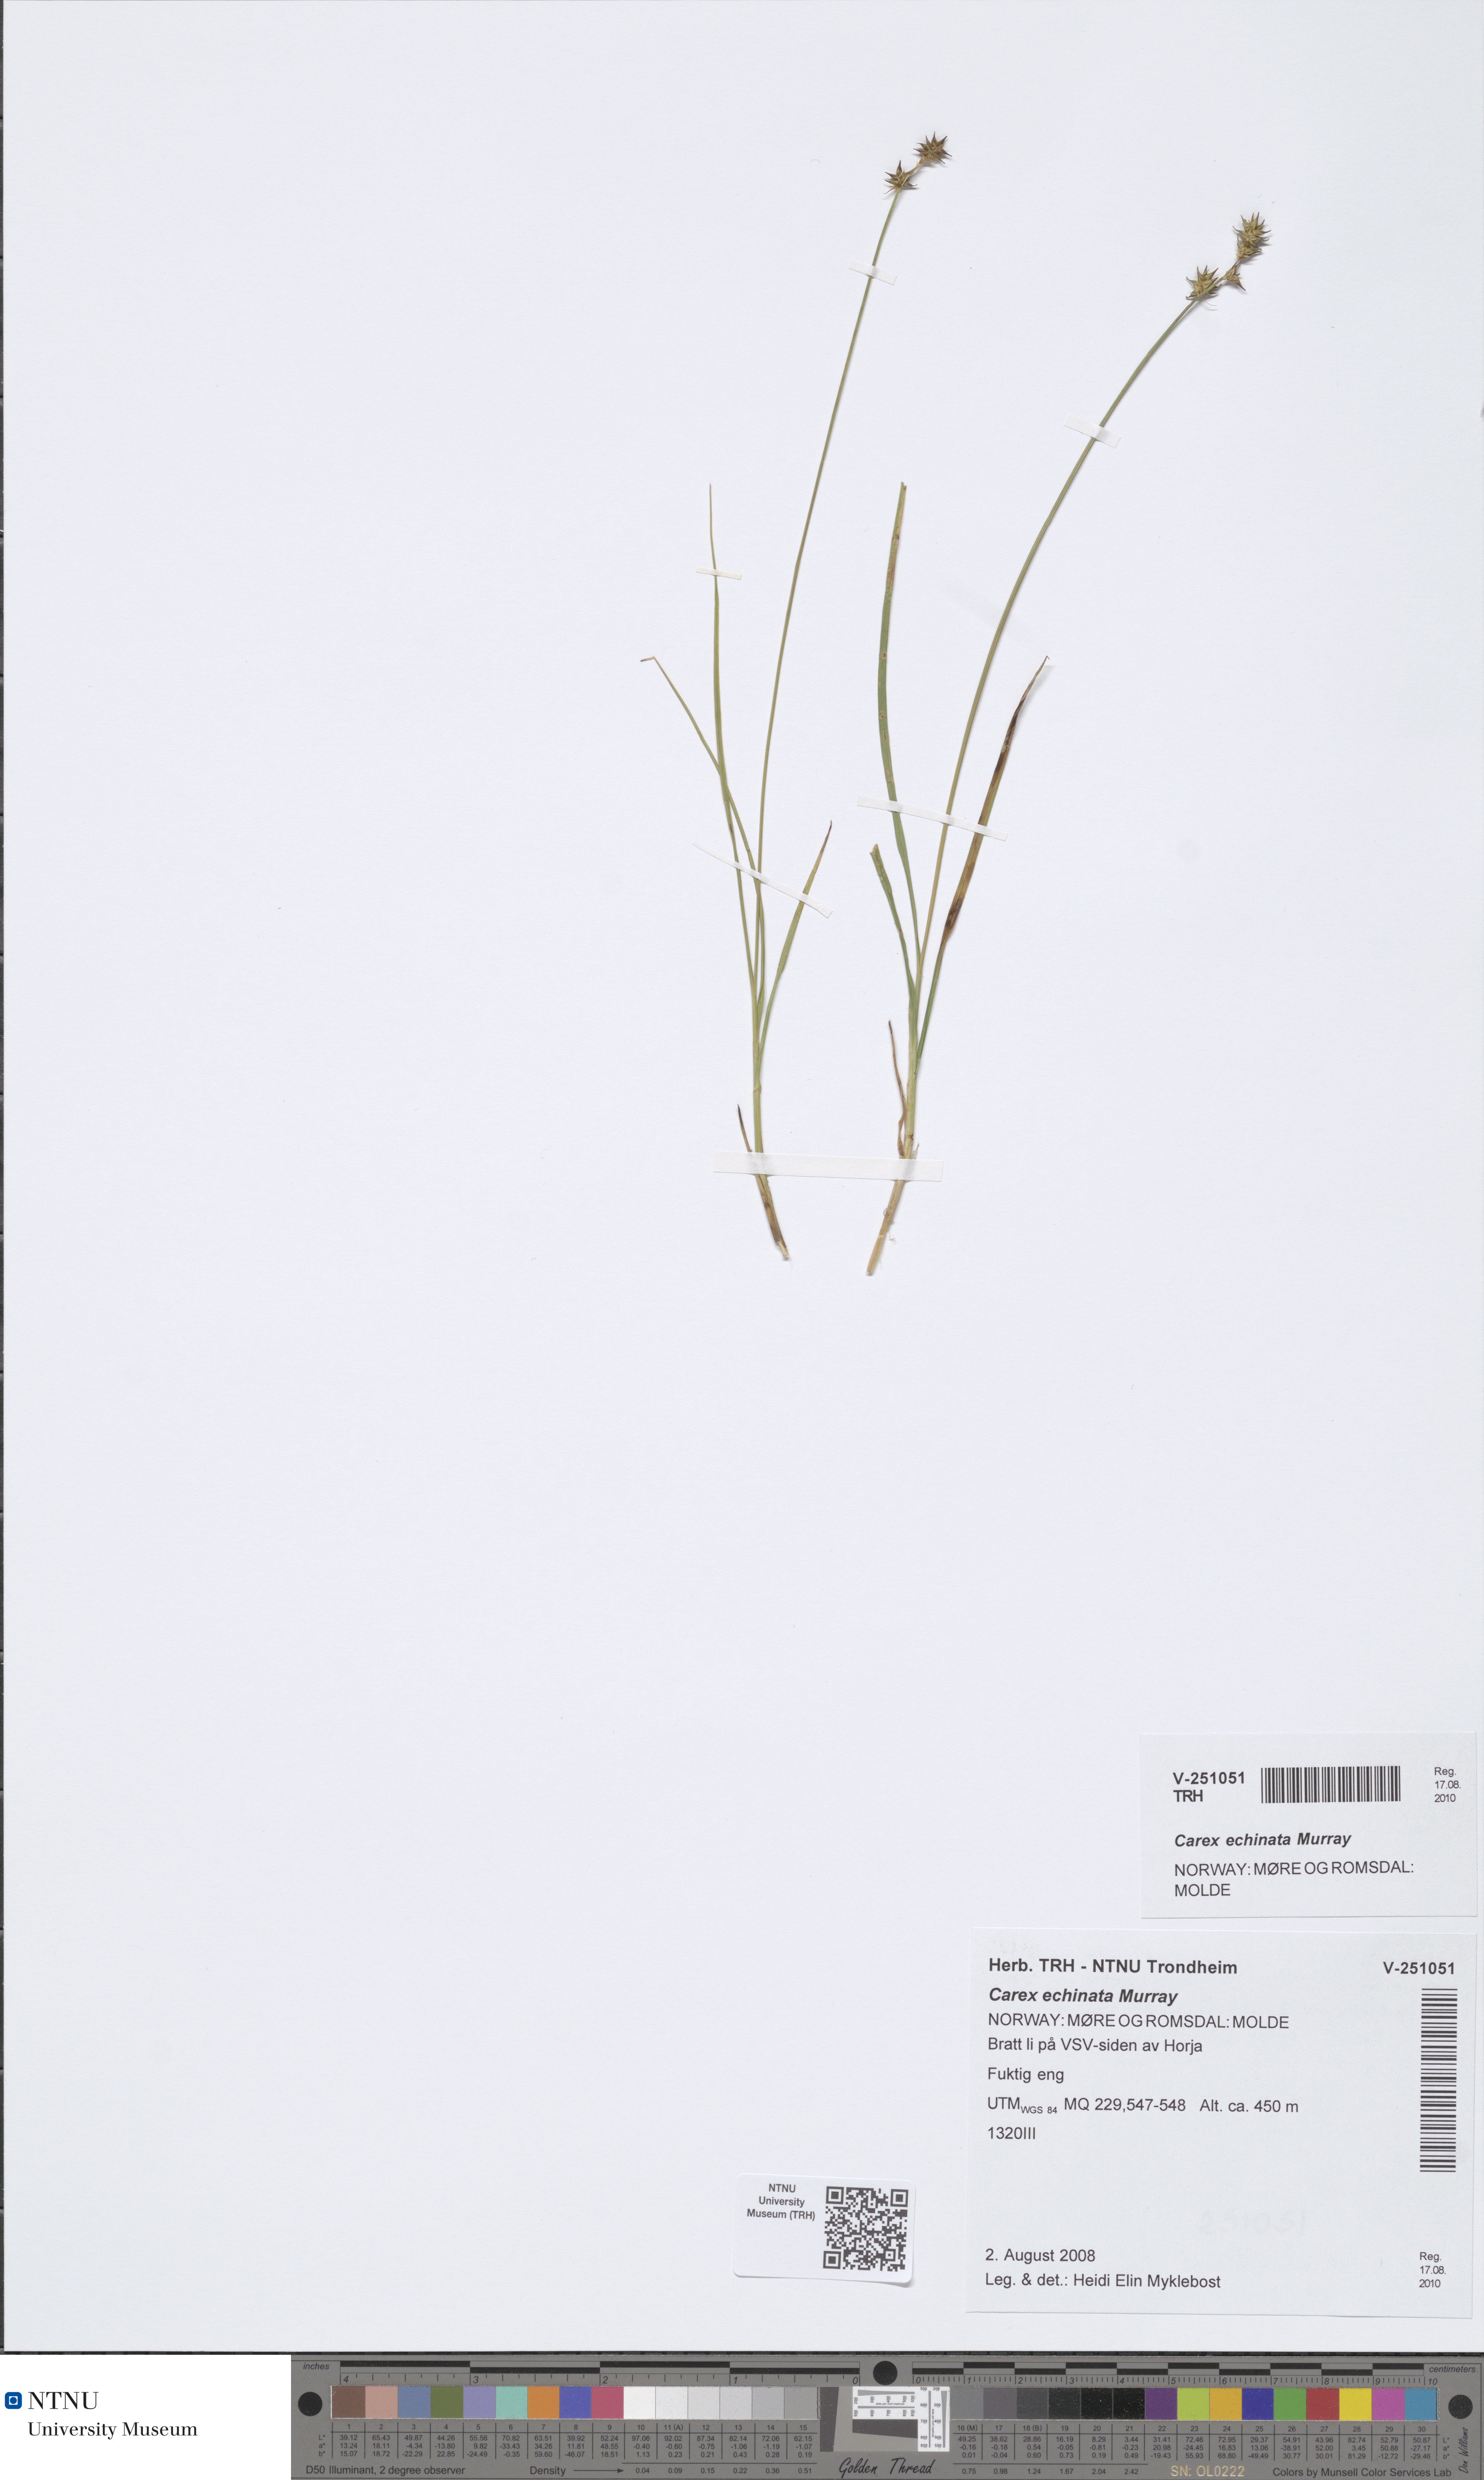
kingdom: Plantae
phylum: Tracheophyta
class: Liliopsida
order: Poales
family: Cyperaceae
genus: Carex
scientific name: Carex echinata
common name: Star sedge
